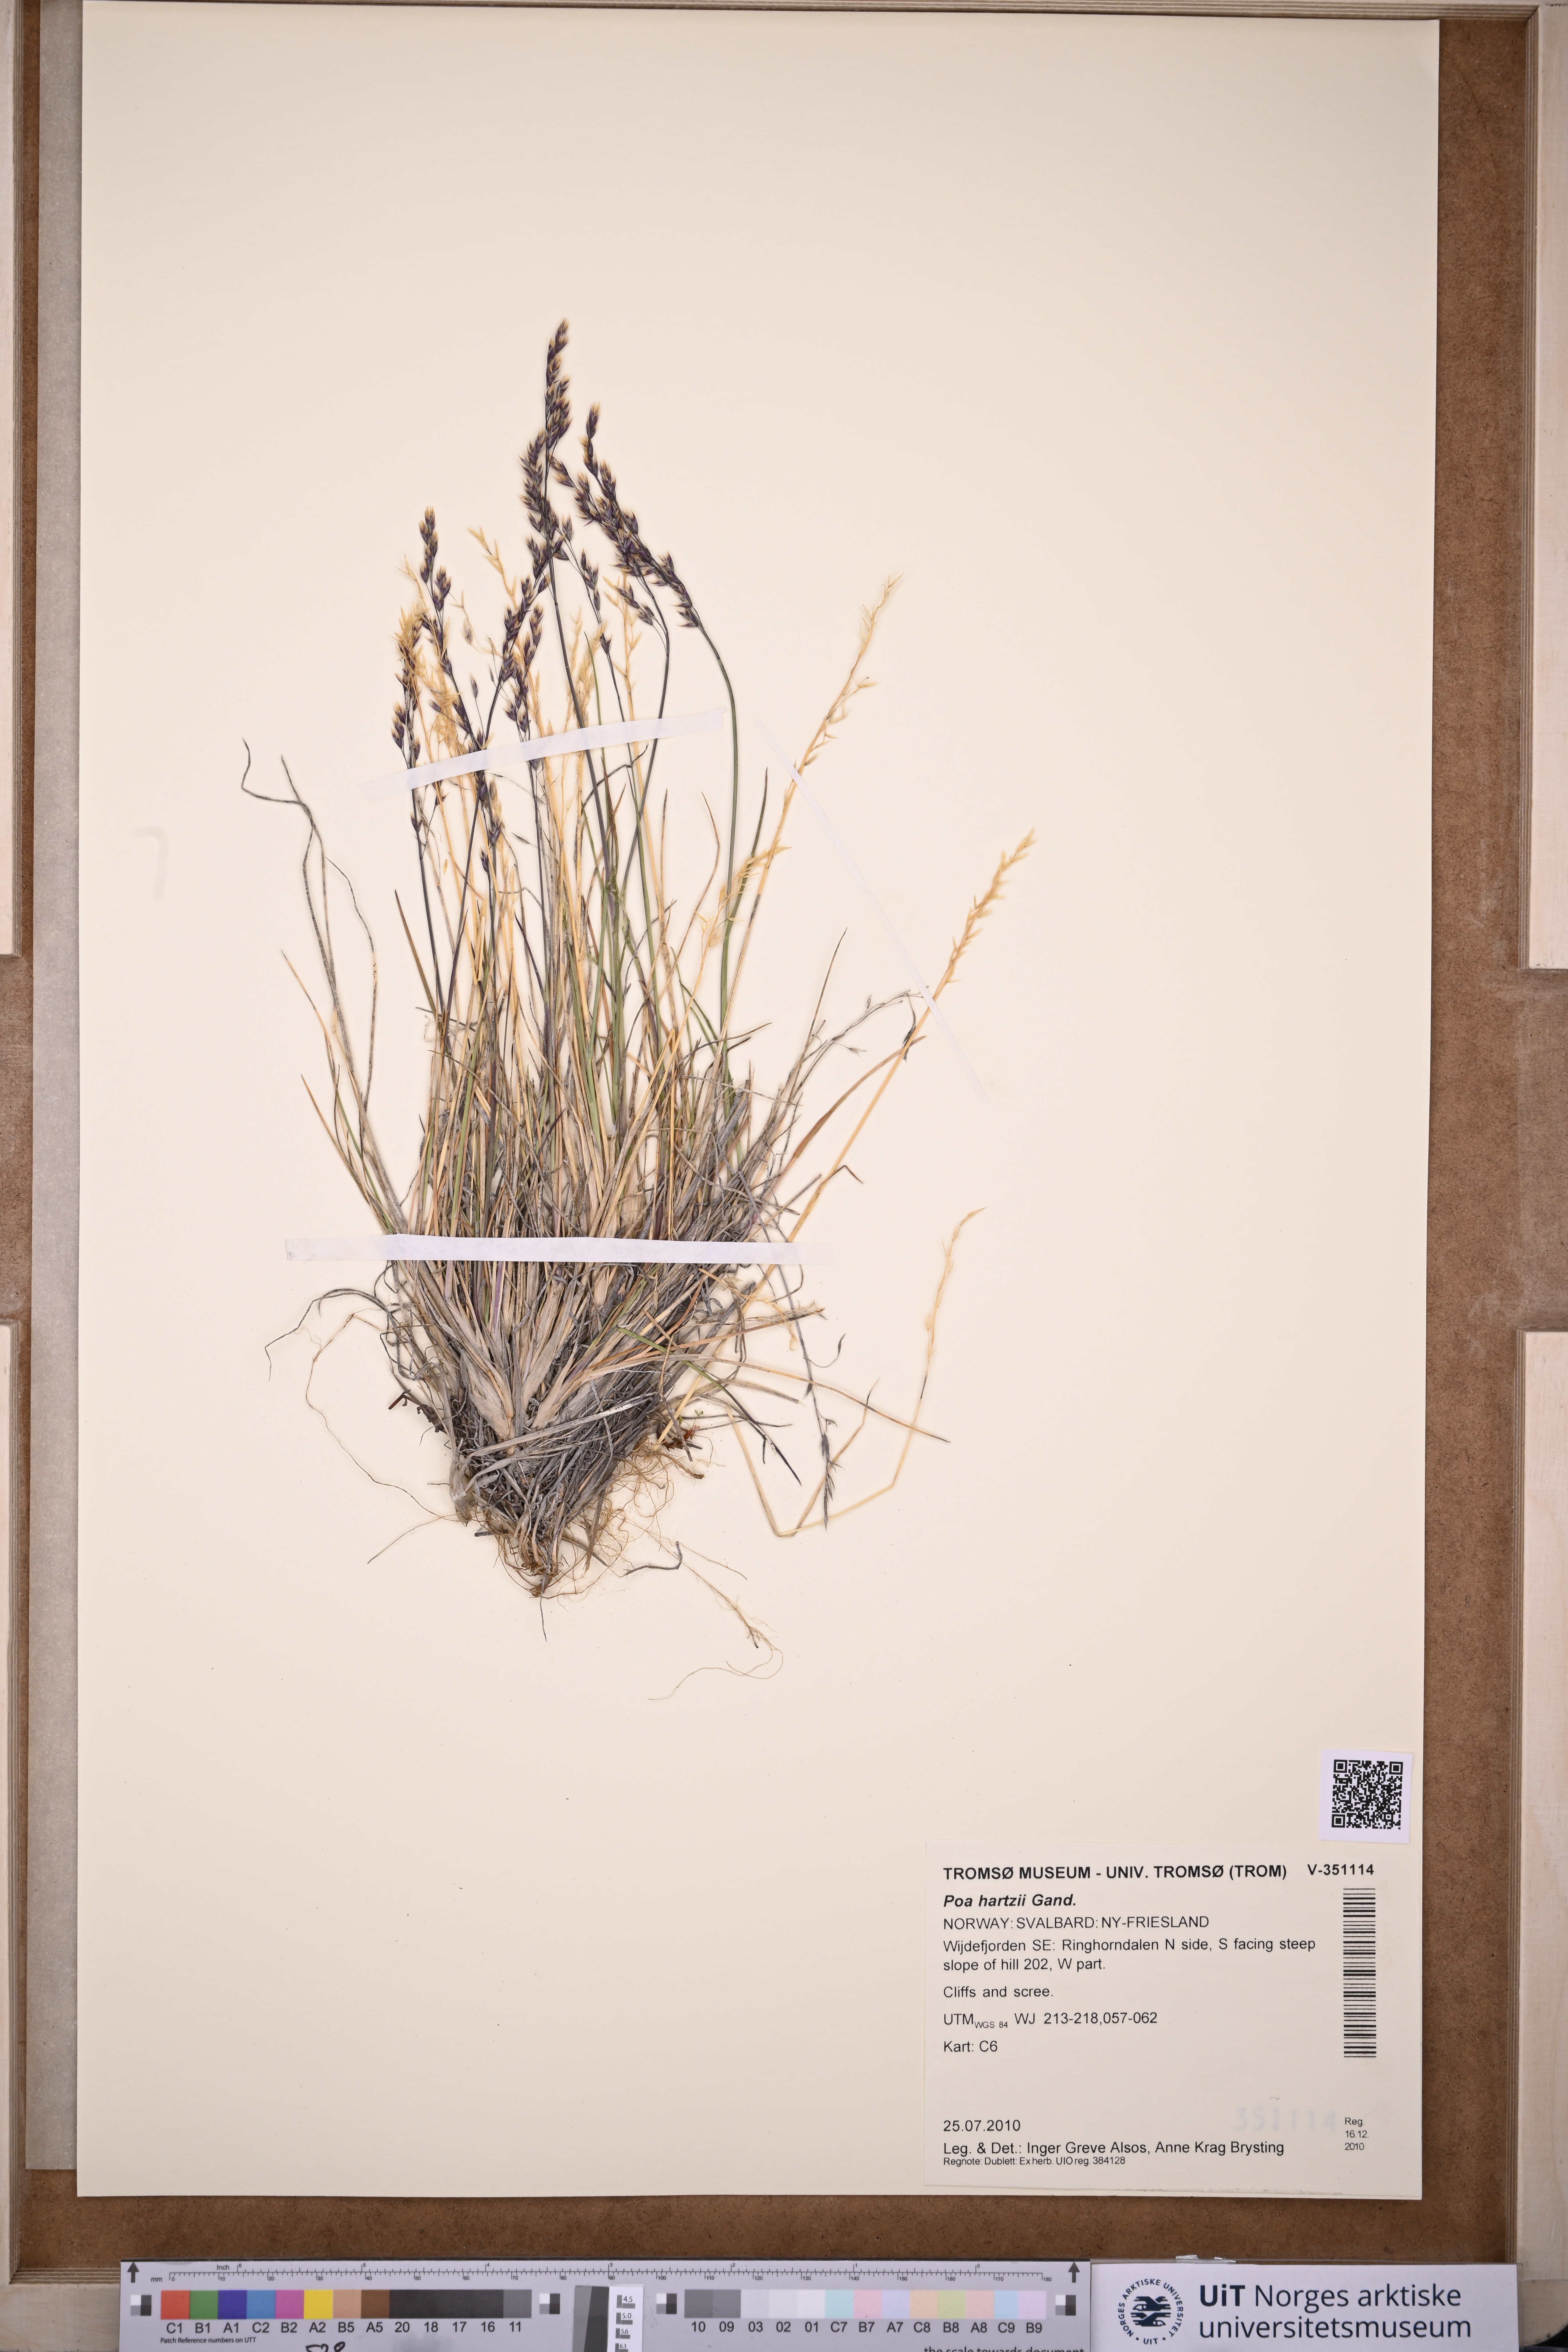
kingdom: Plantae
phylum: Tracheophyta
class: Liliopsida
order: Poales
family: Poaceae
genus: Poa
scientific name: Poa hartzii
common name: Hartz's bluegrass
